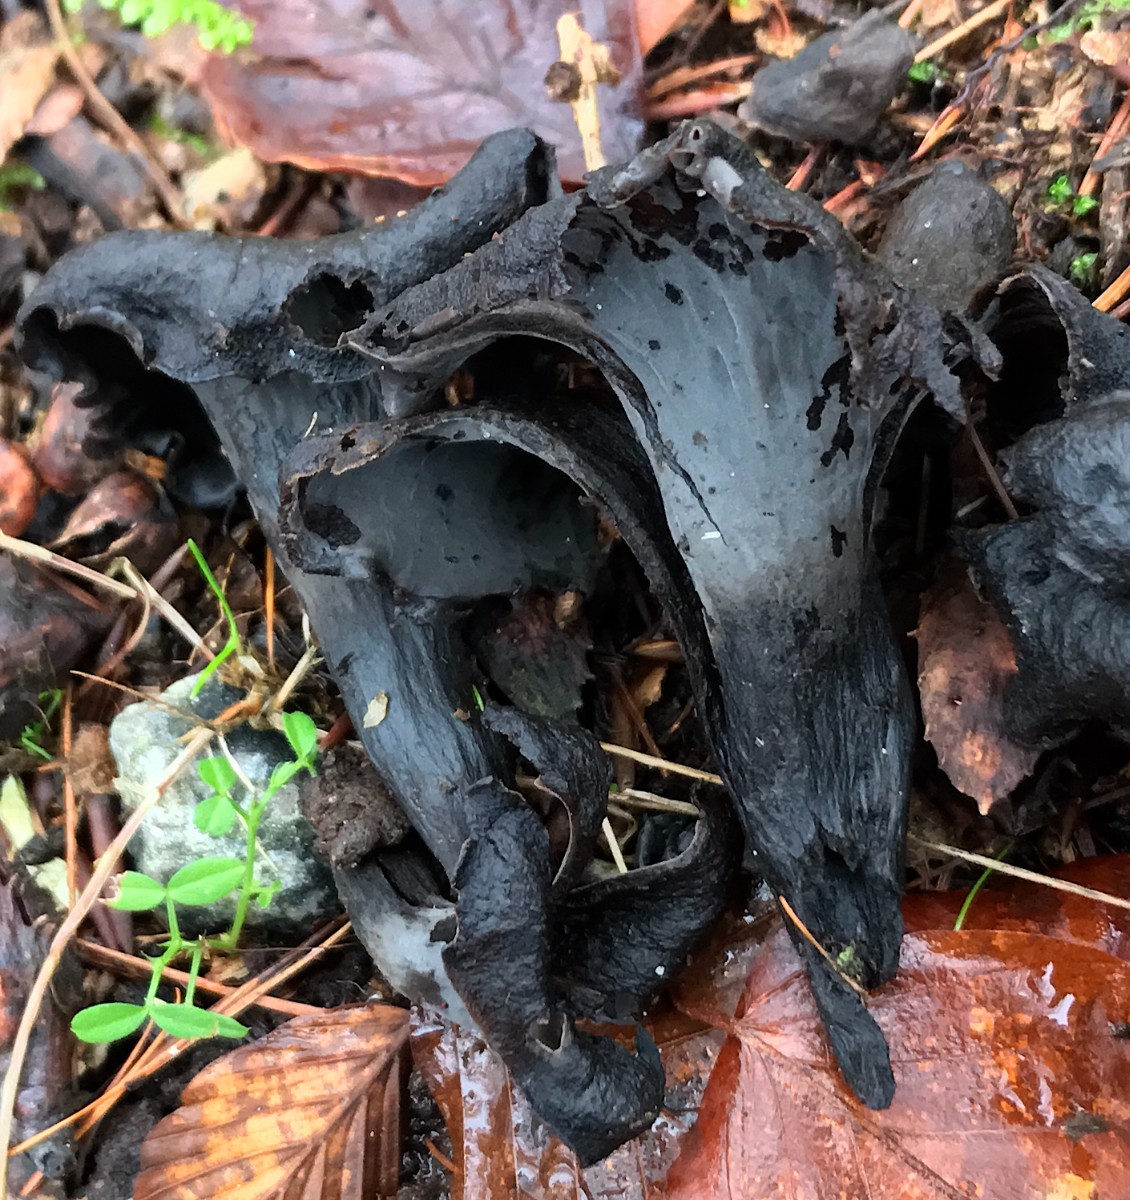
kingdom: Fungi
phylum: Basidiomycota
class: Agaricomycetes
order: Cantharellales
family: Hydnaceae
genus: Craterellus
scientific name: Craterellus cornucopioides
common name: trompetsvamp
